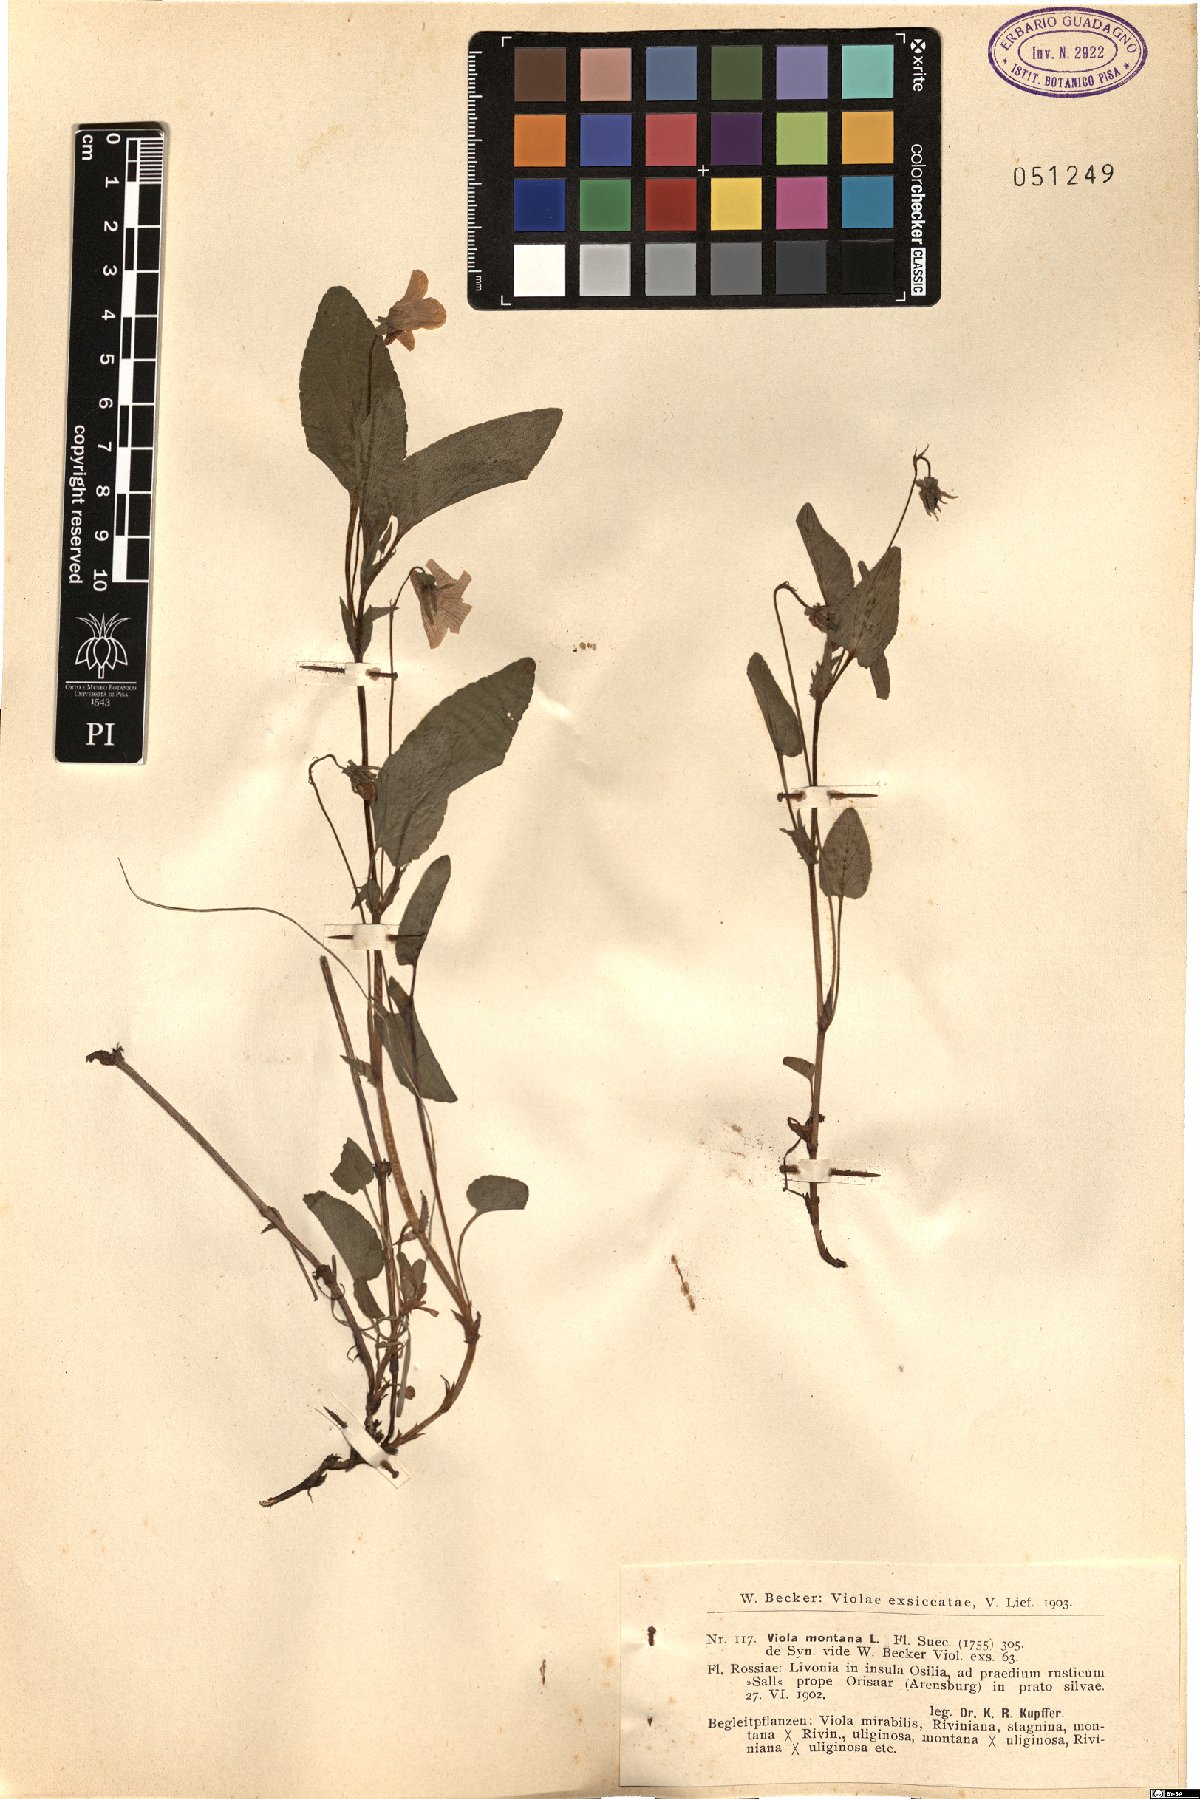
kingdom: Plantae
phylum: Tracheophyta
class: Magnoliopsida
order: Malpighiales
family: Violaceae
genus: Viola
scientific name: Viola ruppii
